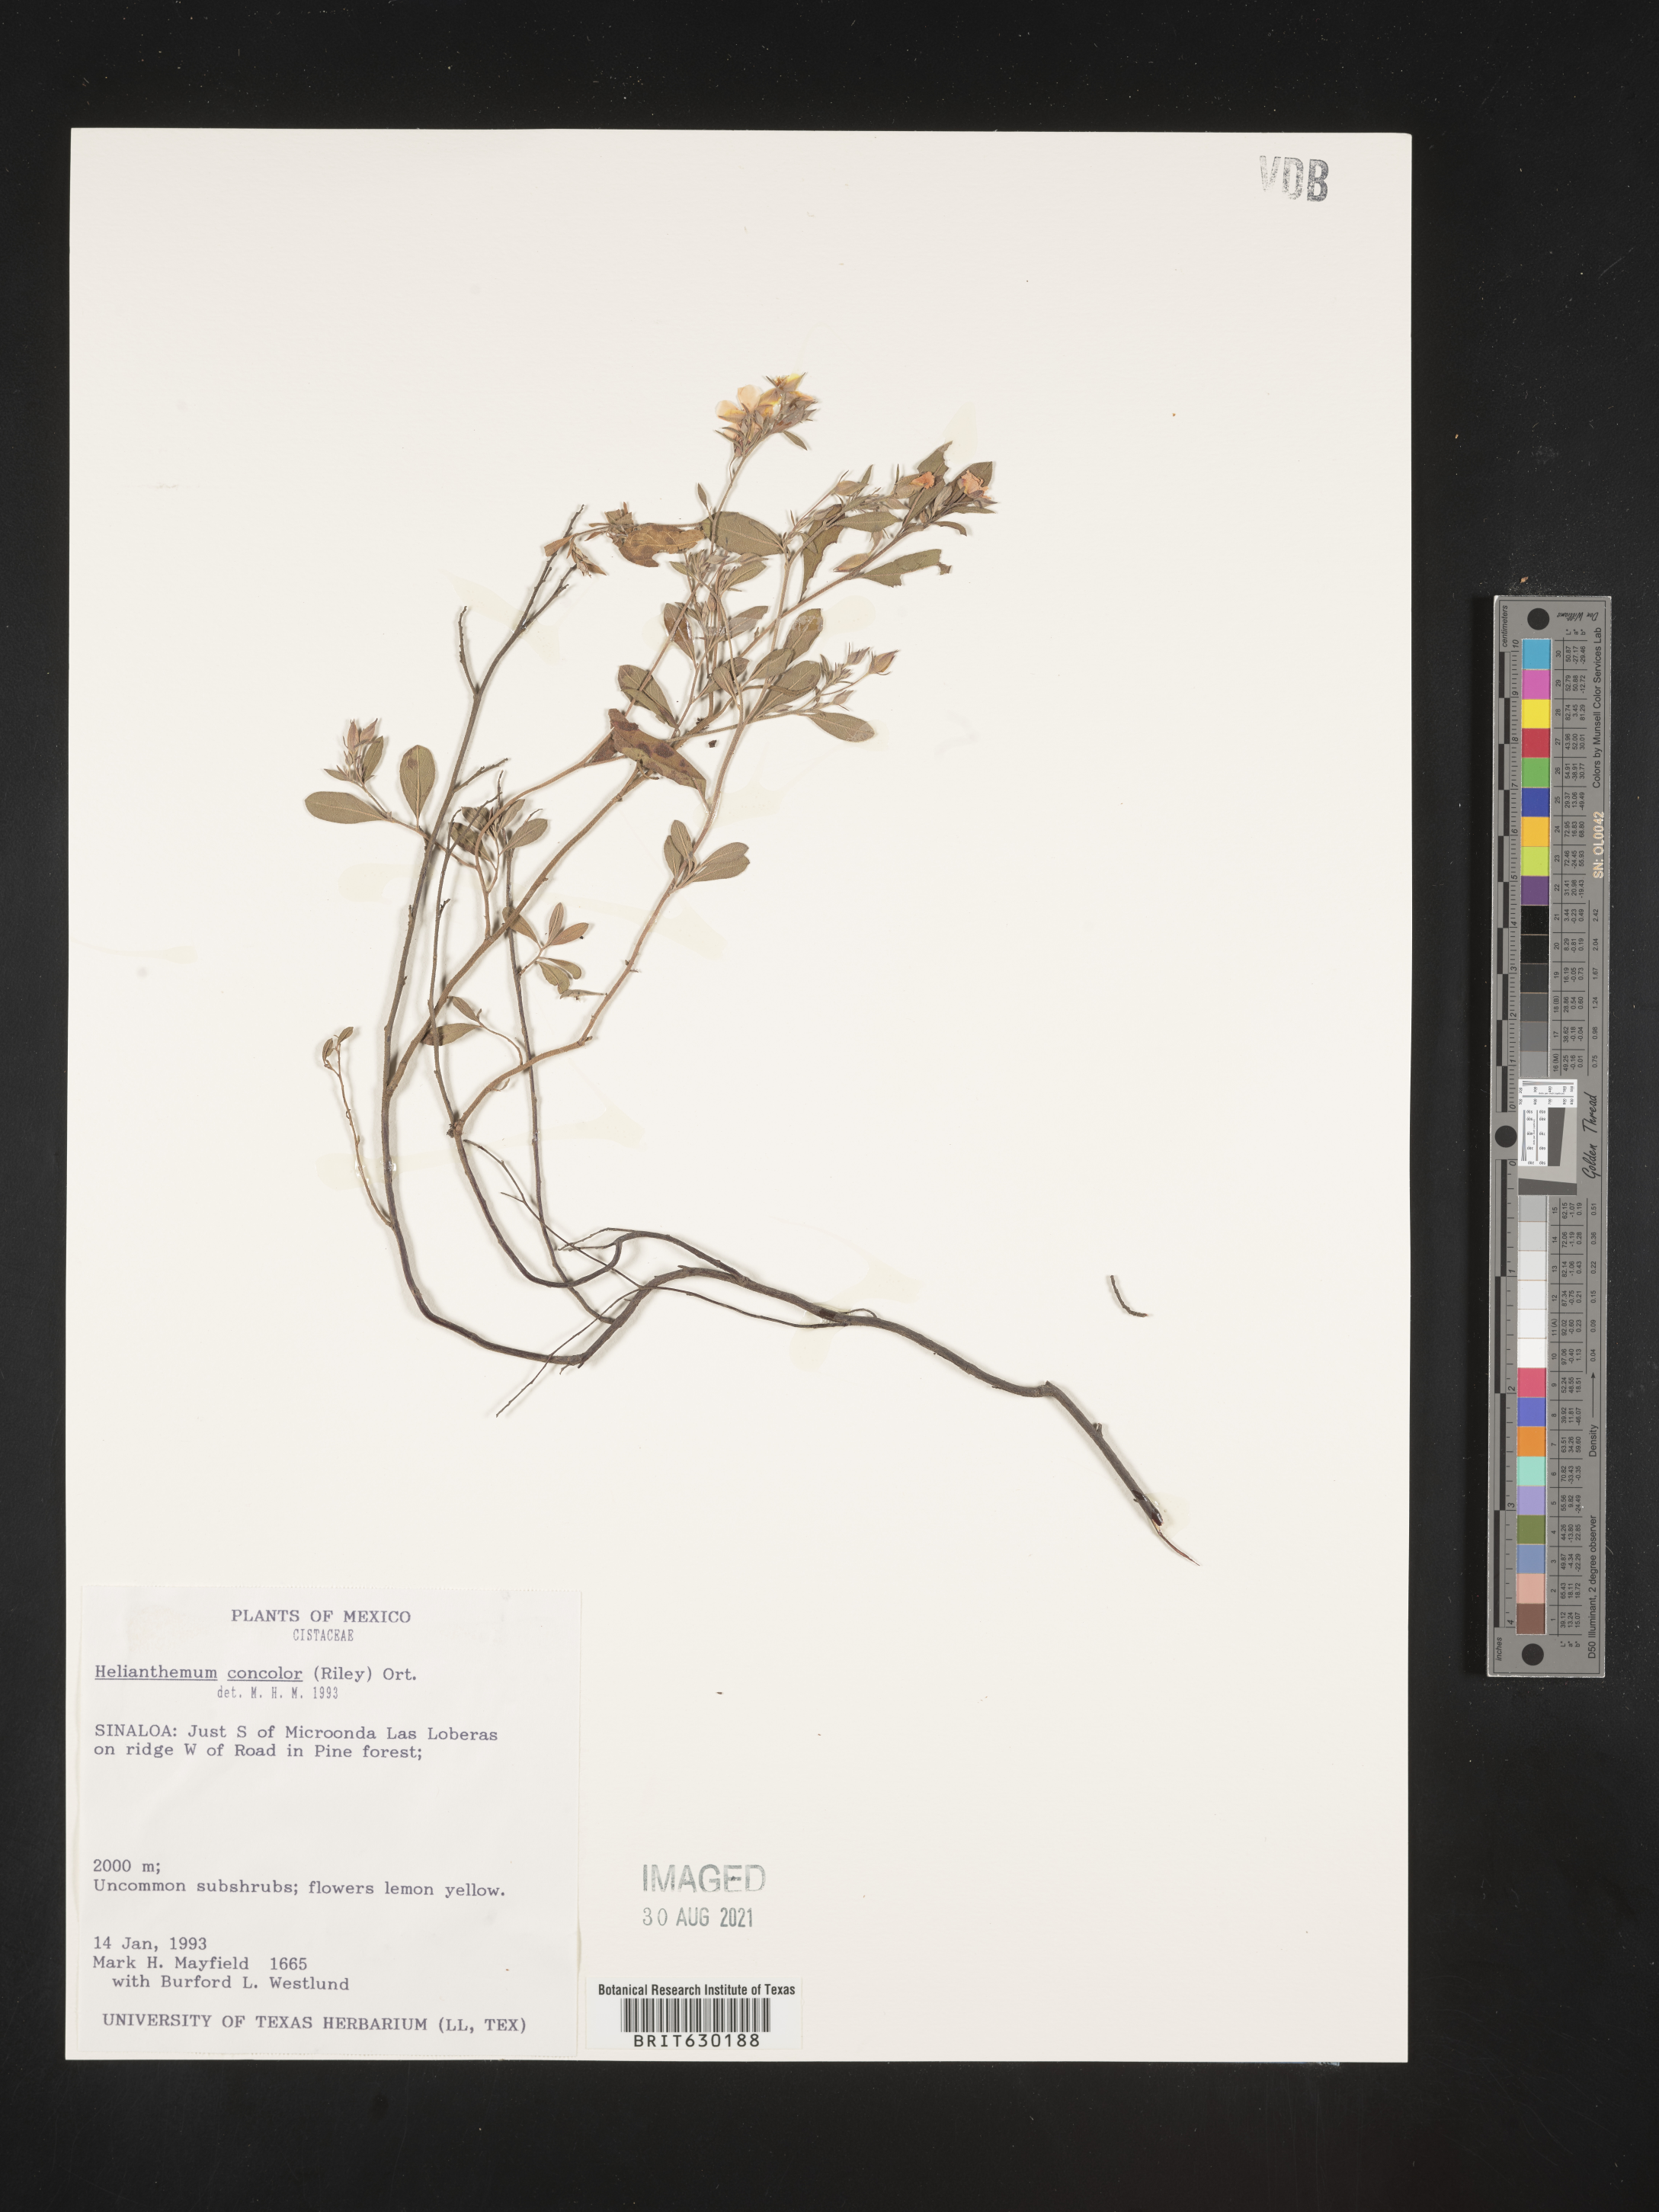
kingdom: Plantae
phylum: Tracheophyta
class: Magnoliopsida
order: Malvales
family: Cistaceae
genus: Helianthemum
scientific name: Helianthemum
